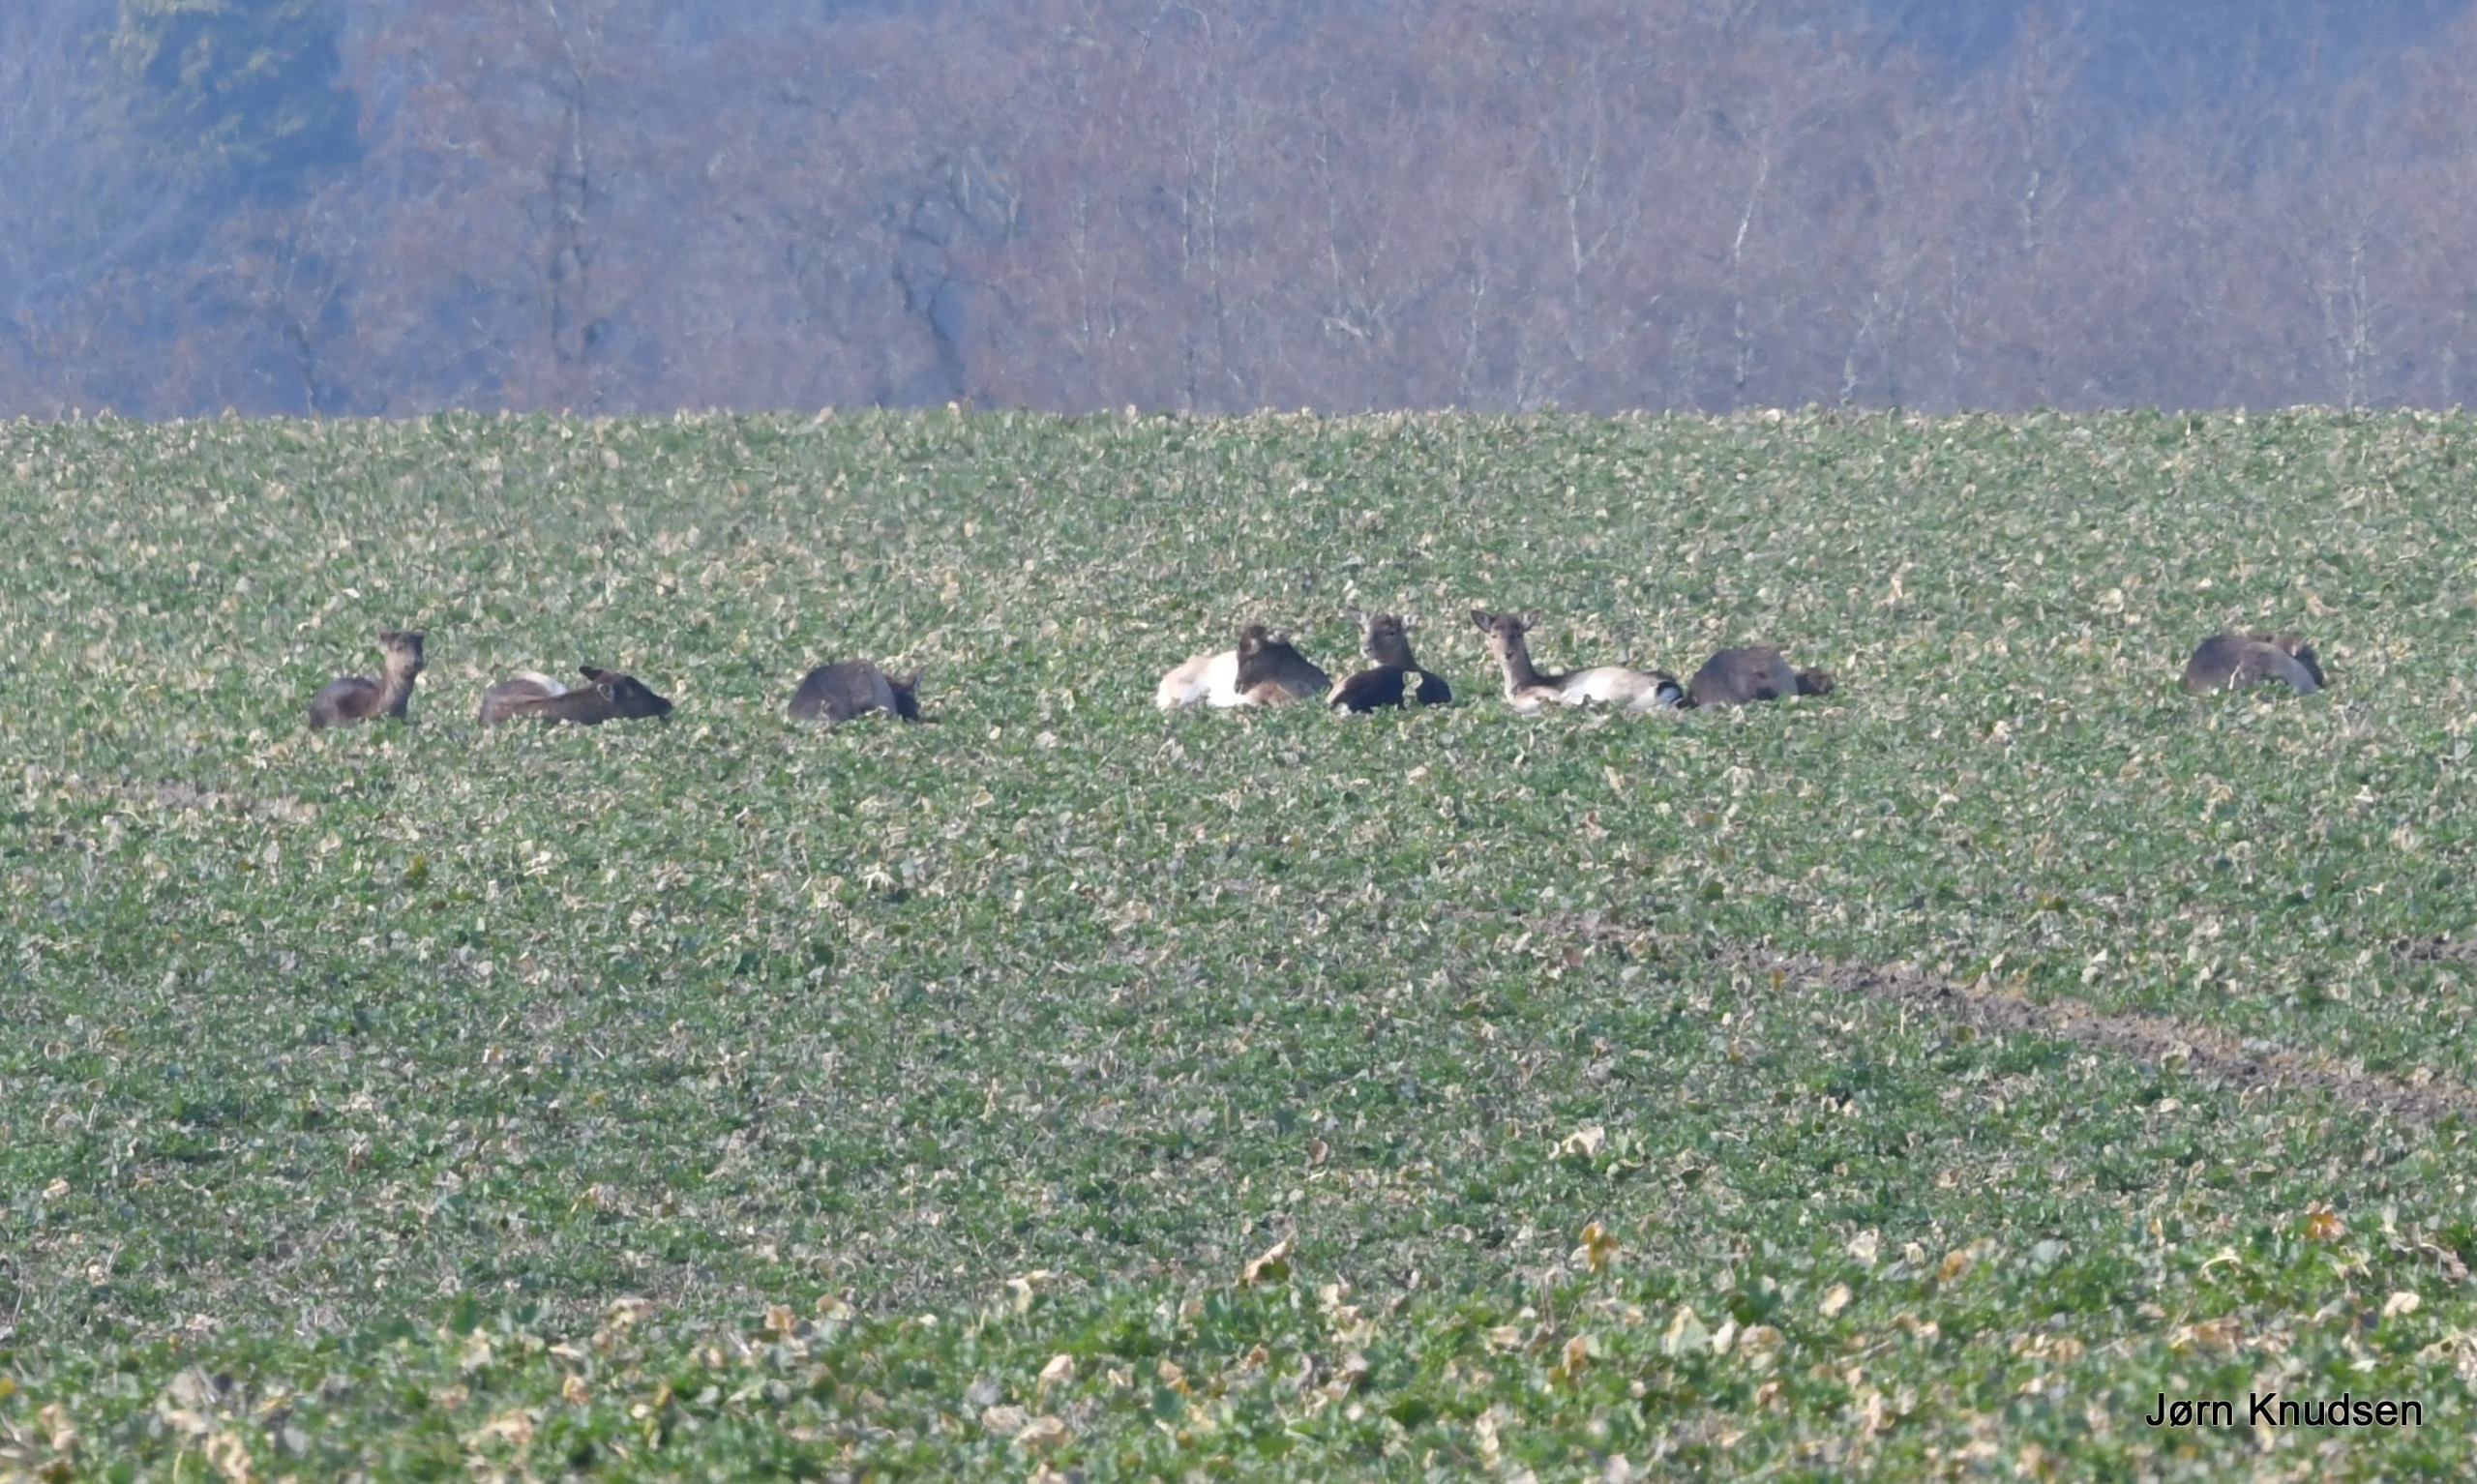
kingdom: Animalia
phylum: Chordata
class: Mammalia
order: Artiodactyla
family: Cervidae
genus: Capreolus
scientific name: Capreolus capreolus
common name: Rådyr
